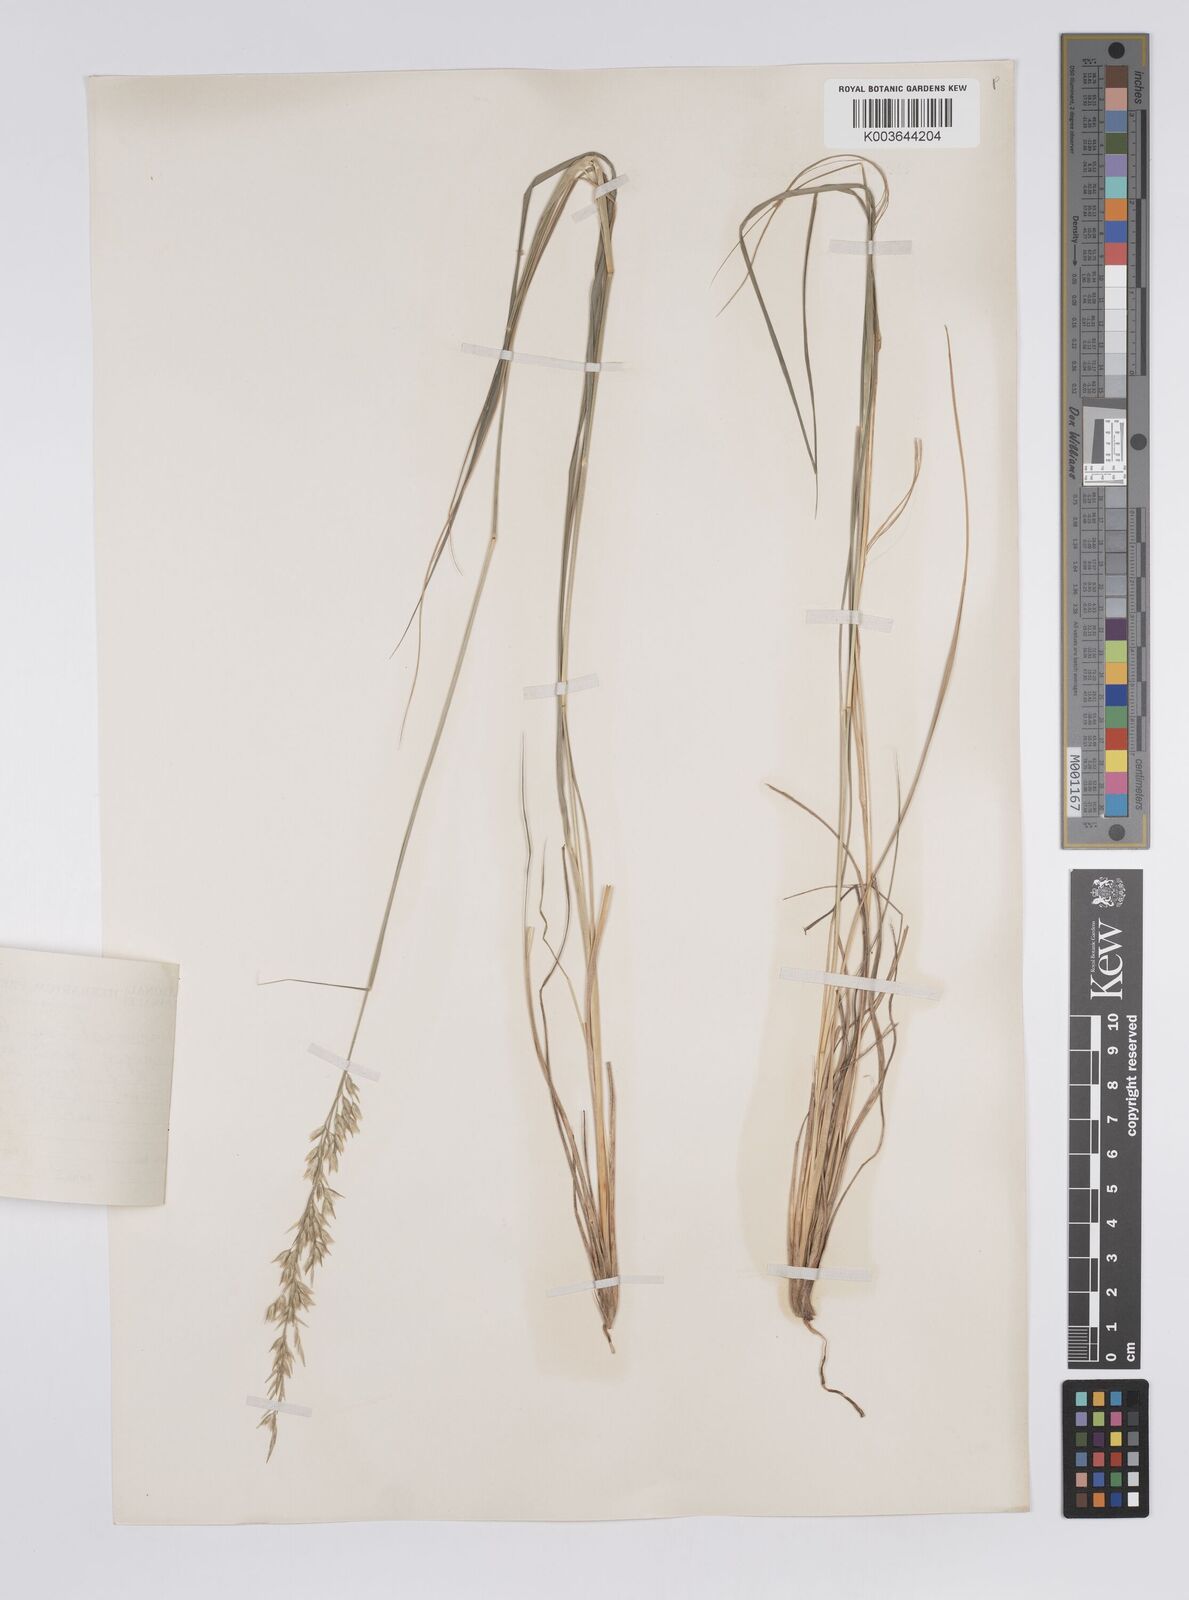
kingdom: Plantae
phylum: Tracheophyta
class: Liliopsida
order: Poales
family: Poaceae
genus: Enneapogon
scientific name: Enneapogon pretoriensis
